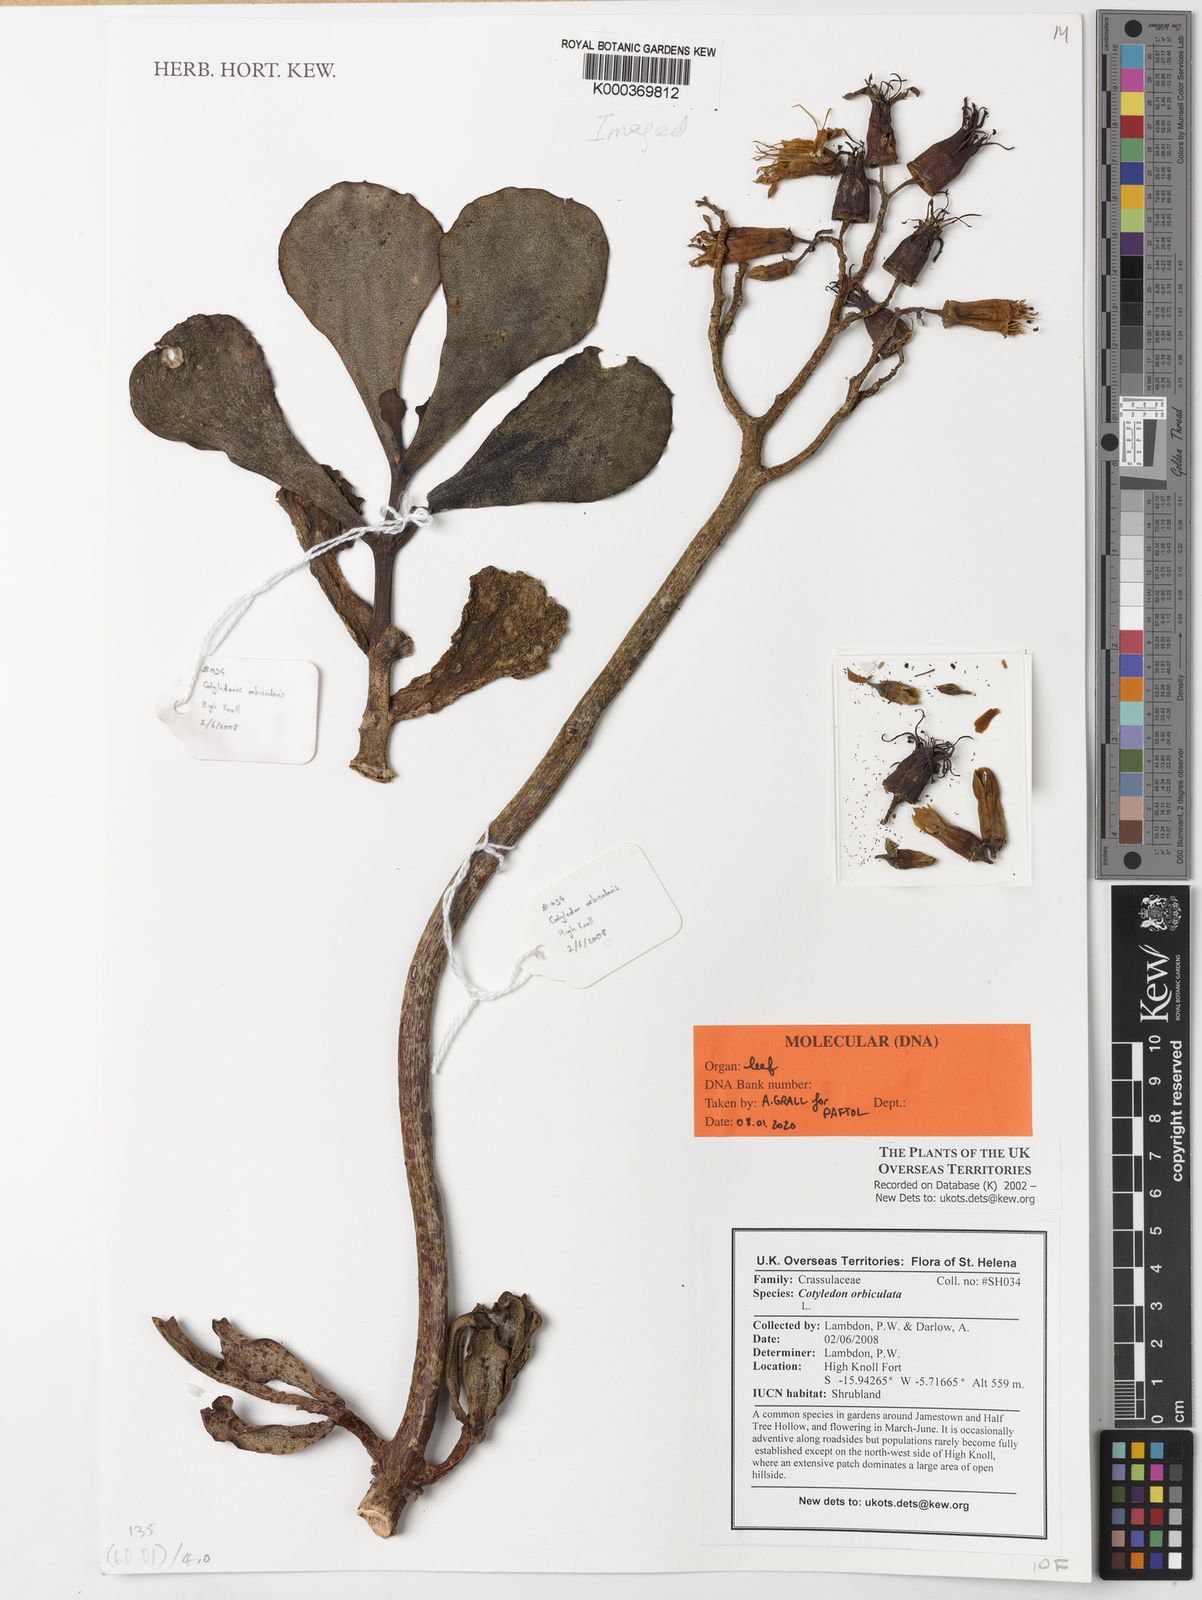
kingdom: Plantae
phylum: Tracheophyta
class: Magnoliopsida
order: Saxifragales
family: Crassulaceae
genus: Cotyledon
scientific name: Cotyledon orbiculata
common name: Pig's ear
